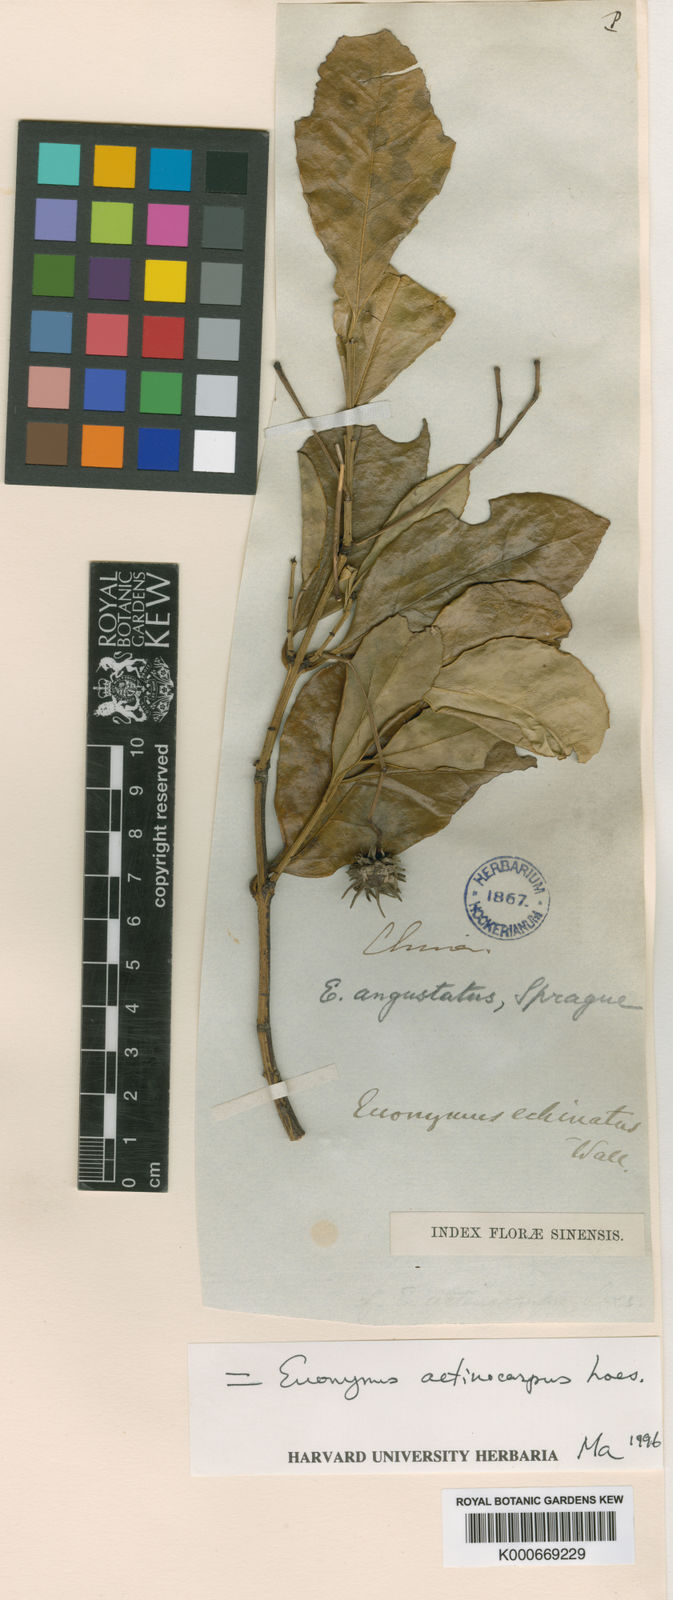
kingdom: Plantae
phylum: Tracheophyta
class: Magnoliopsida
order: Celastrales
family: Celastraceae
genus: Euonymus
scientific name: Euonymus actinocarpus
